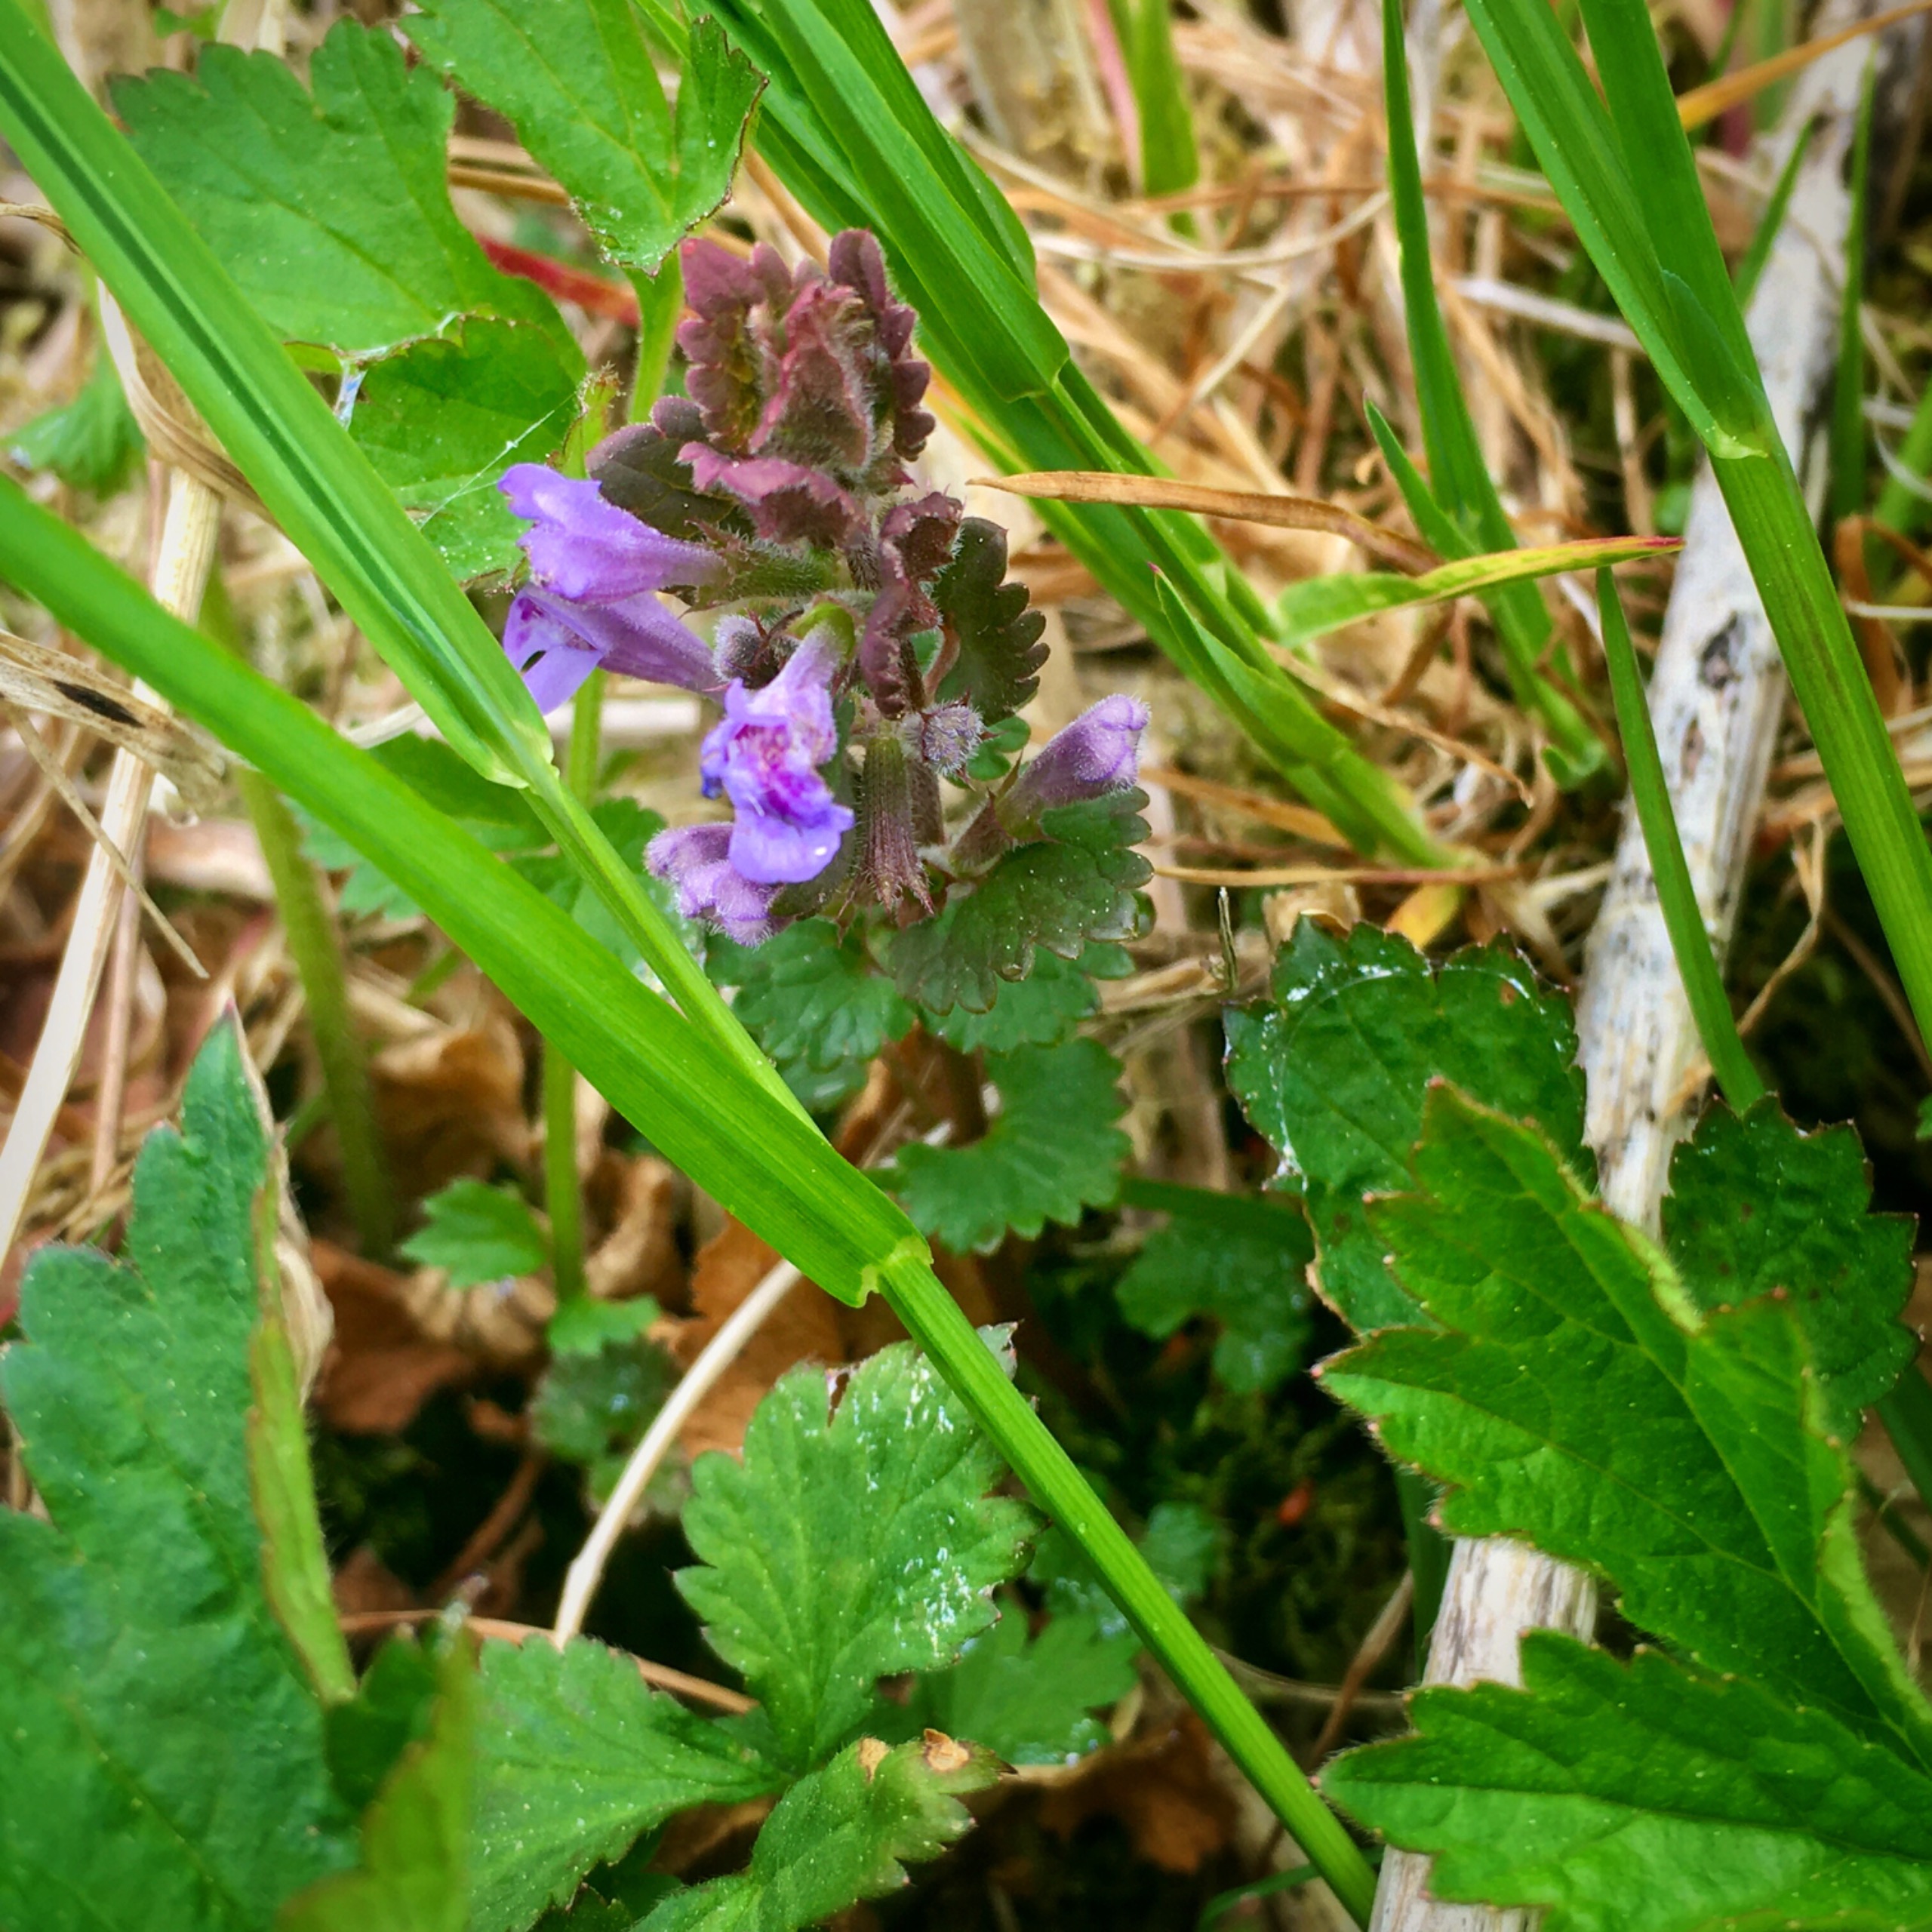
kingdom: Plantae
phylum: Tracheophyta
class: Magnoliopsida
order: Lamiales
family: Lamiaceae
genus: Glechoma
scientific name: Glechoma hederacea
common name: Korsknap
